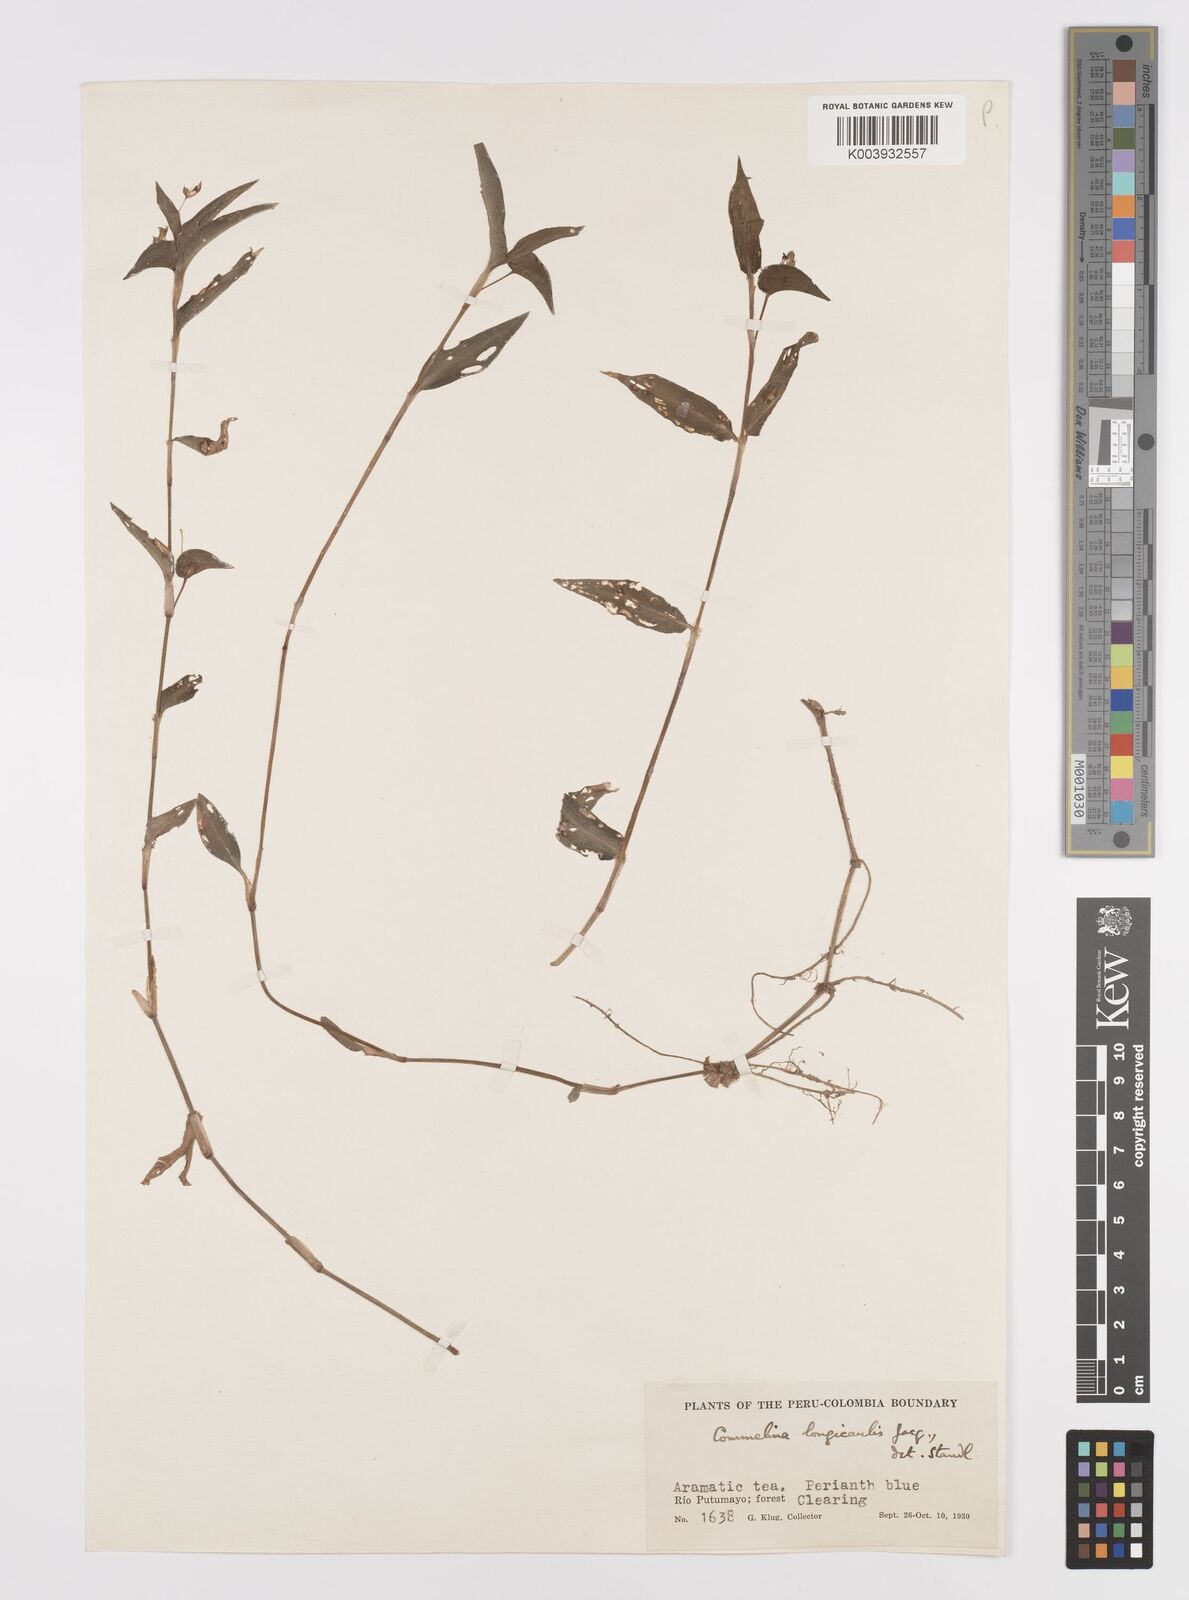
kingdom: Plantae
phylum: Tracheophyta
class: Liliopsida
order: Commelinales
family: Commelinaceae
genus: Commelina
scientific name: Commelina diffusa
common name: Climbing dayflower
